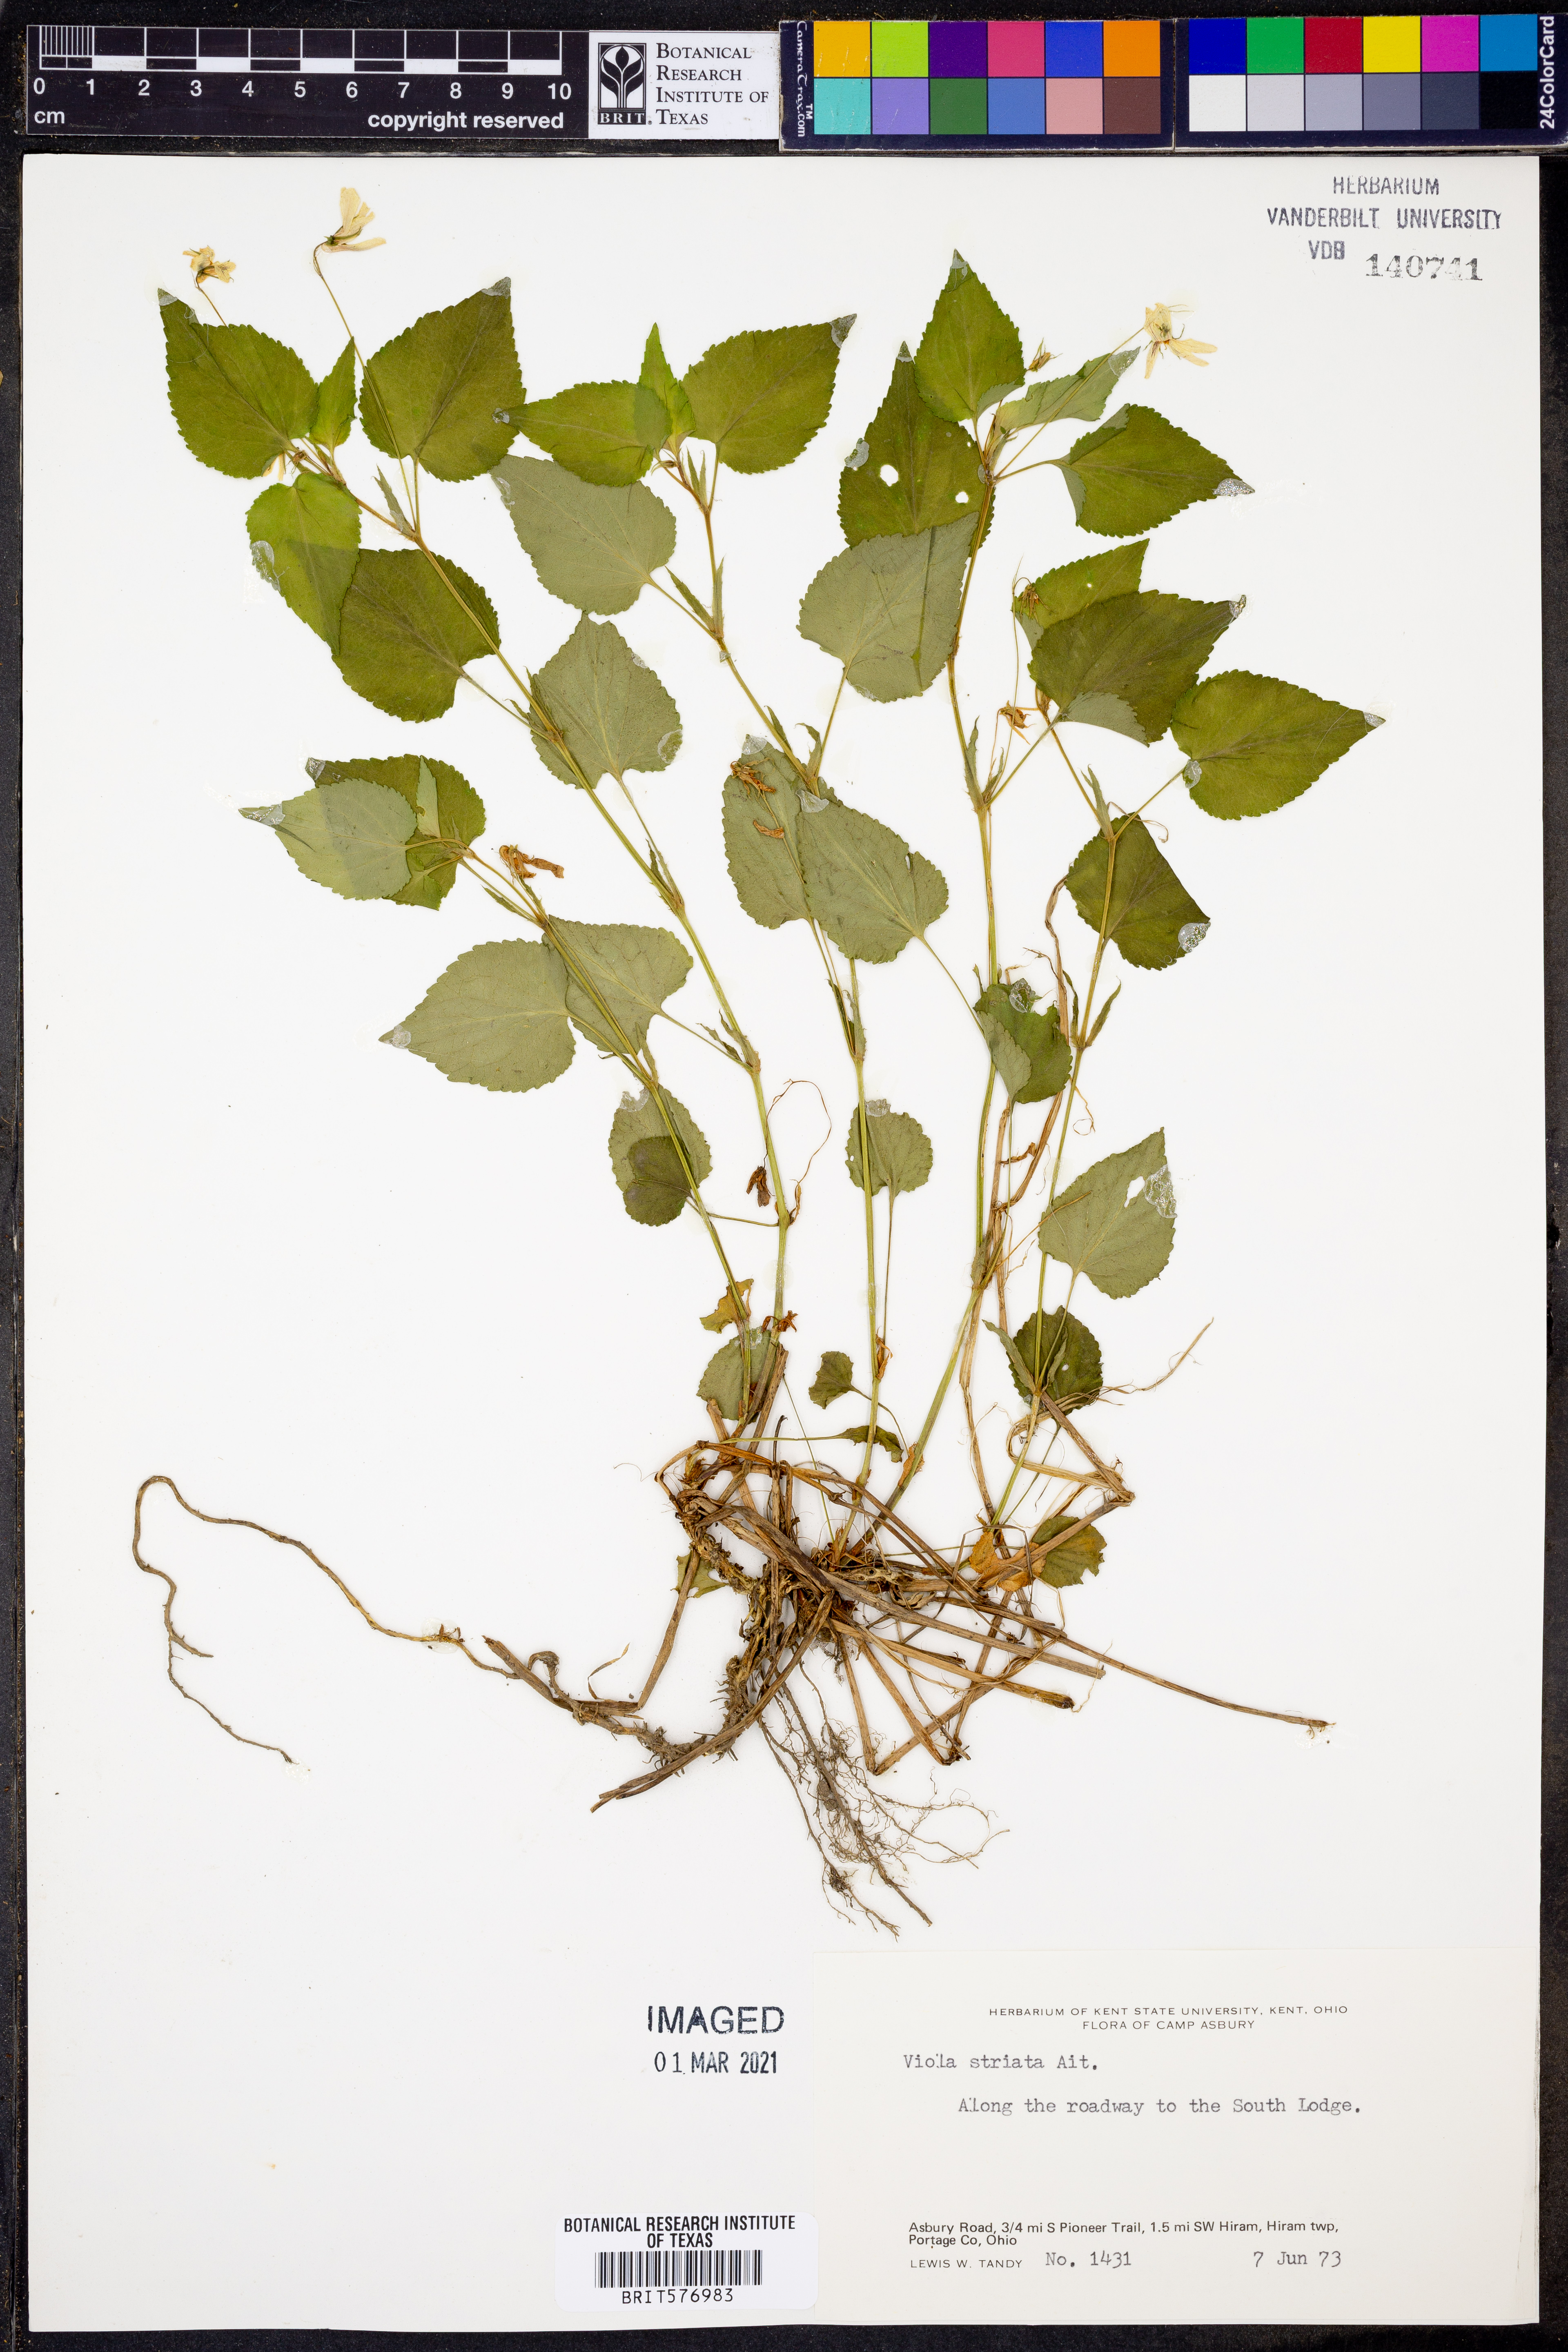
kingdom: Plantae
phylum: Tracheophyta
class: Magnoliopsida
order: Malpighiales
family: Violaceae
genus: Viola
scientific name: Viola striata
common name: Cream violet
